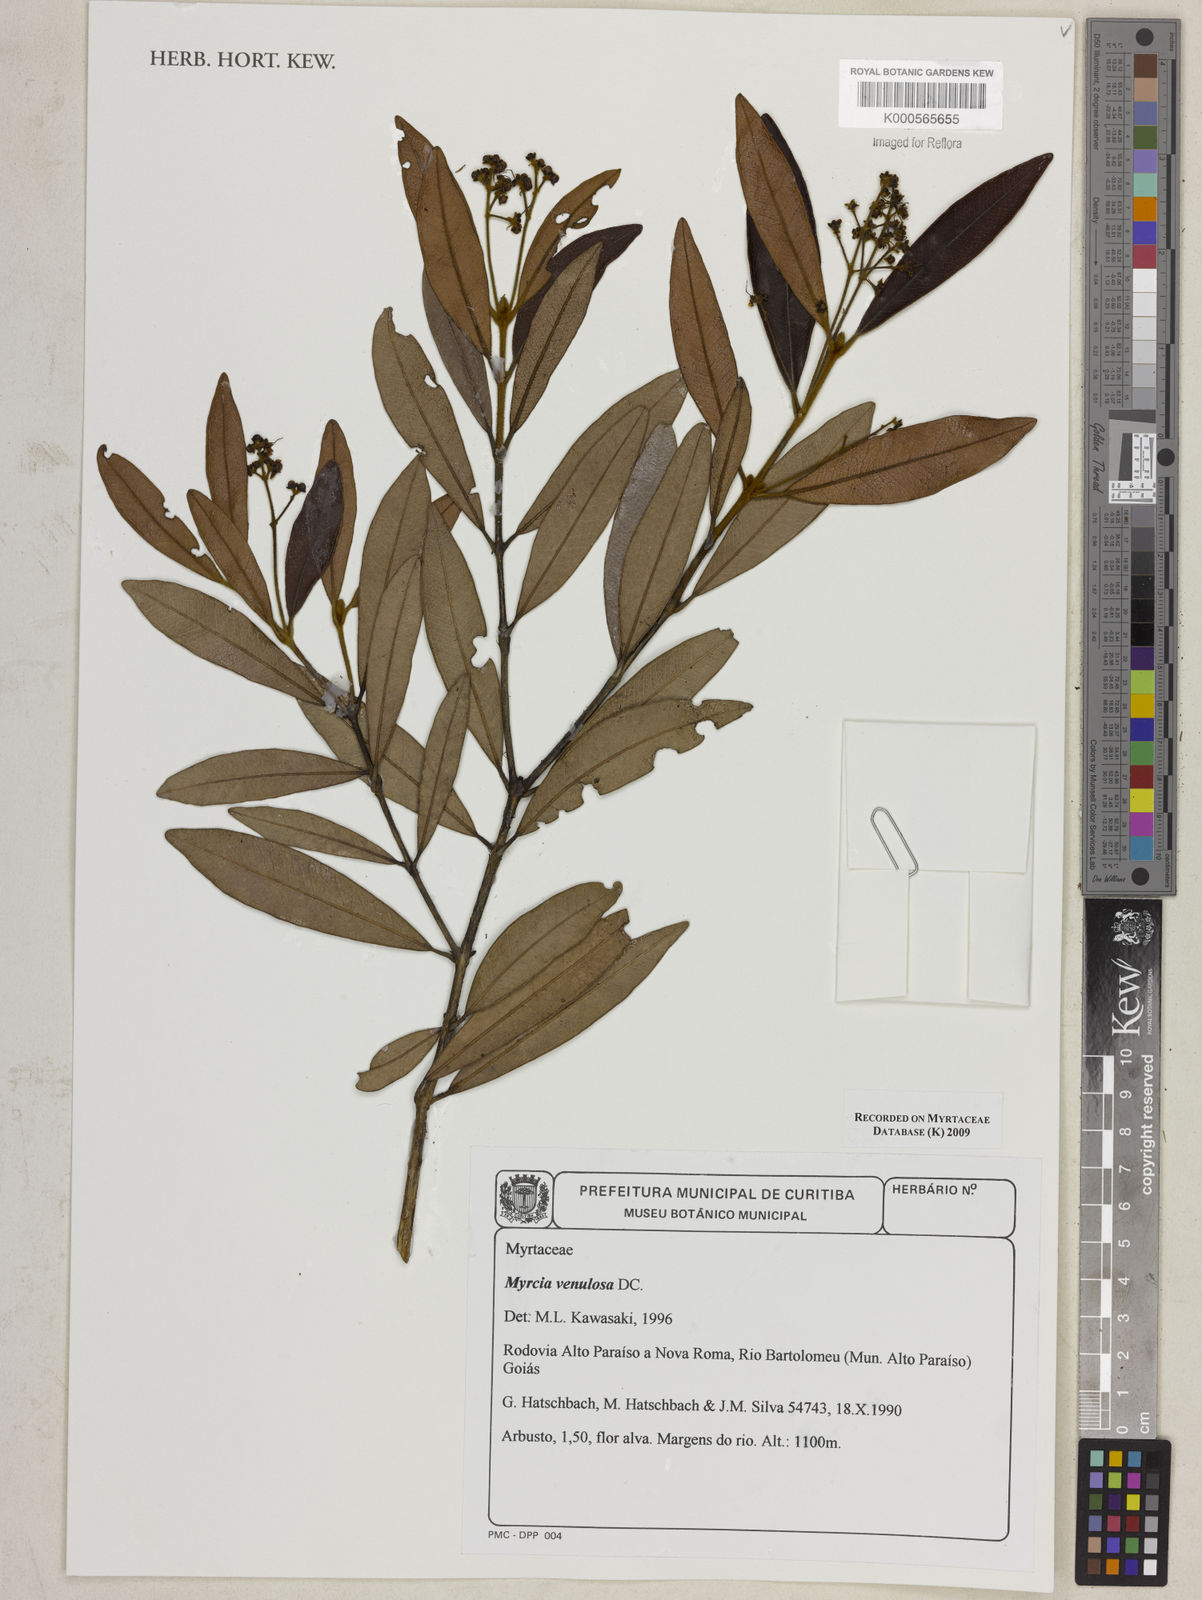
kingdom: Plantae
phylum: Tracheophyta
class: Magnoliopsida
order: Myrtales
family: Myrtaceae
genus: Myrcia
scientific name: Myrcia venulosa
